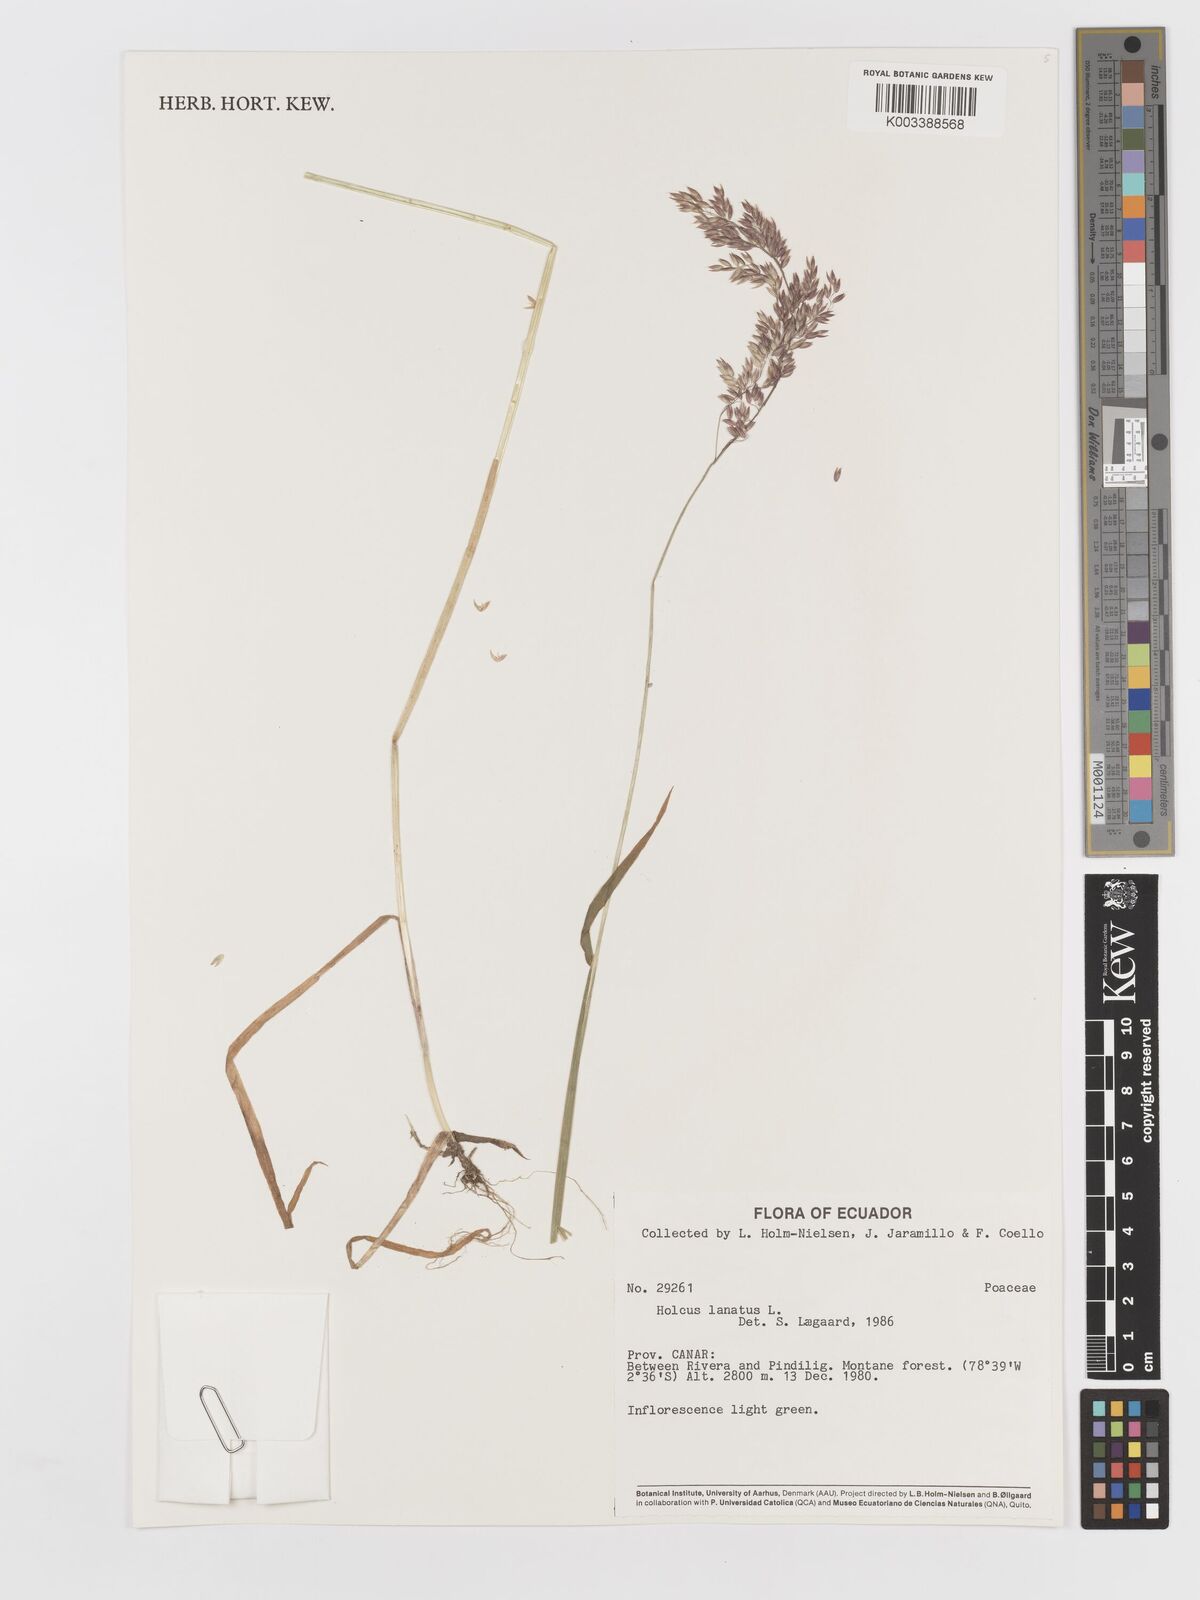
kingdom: Plantae
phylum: Tracheophyta
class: Liliopsida
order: Poales
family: Poaceae
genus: Holcus
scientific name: Holcus lanatus
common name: Yorkshire-fog
